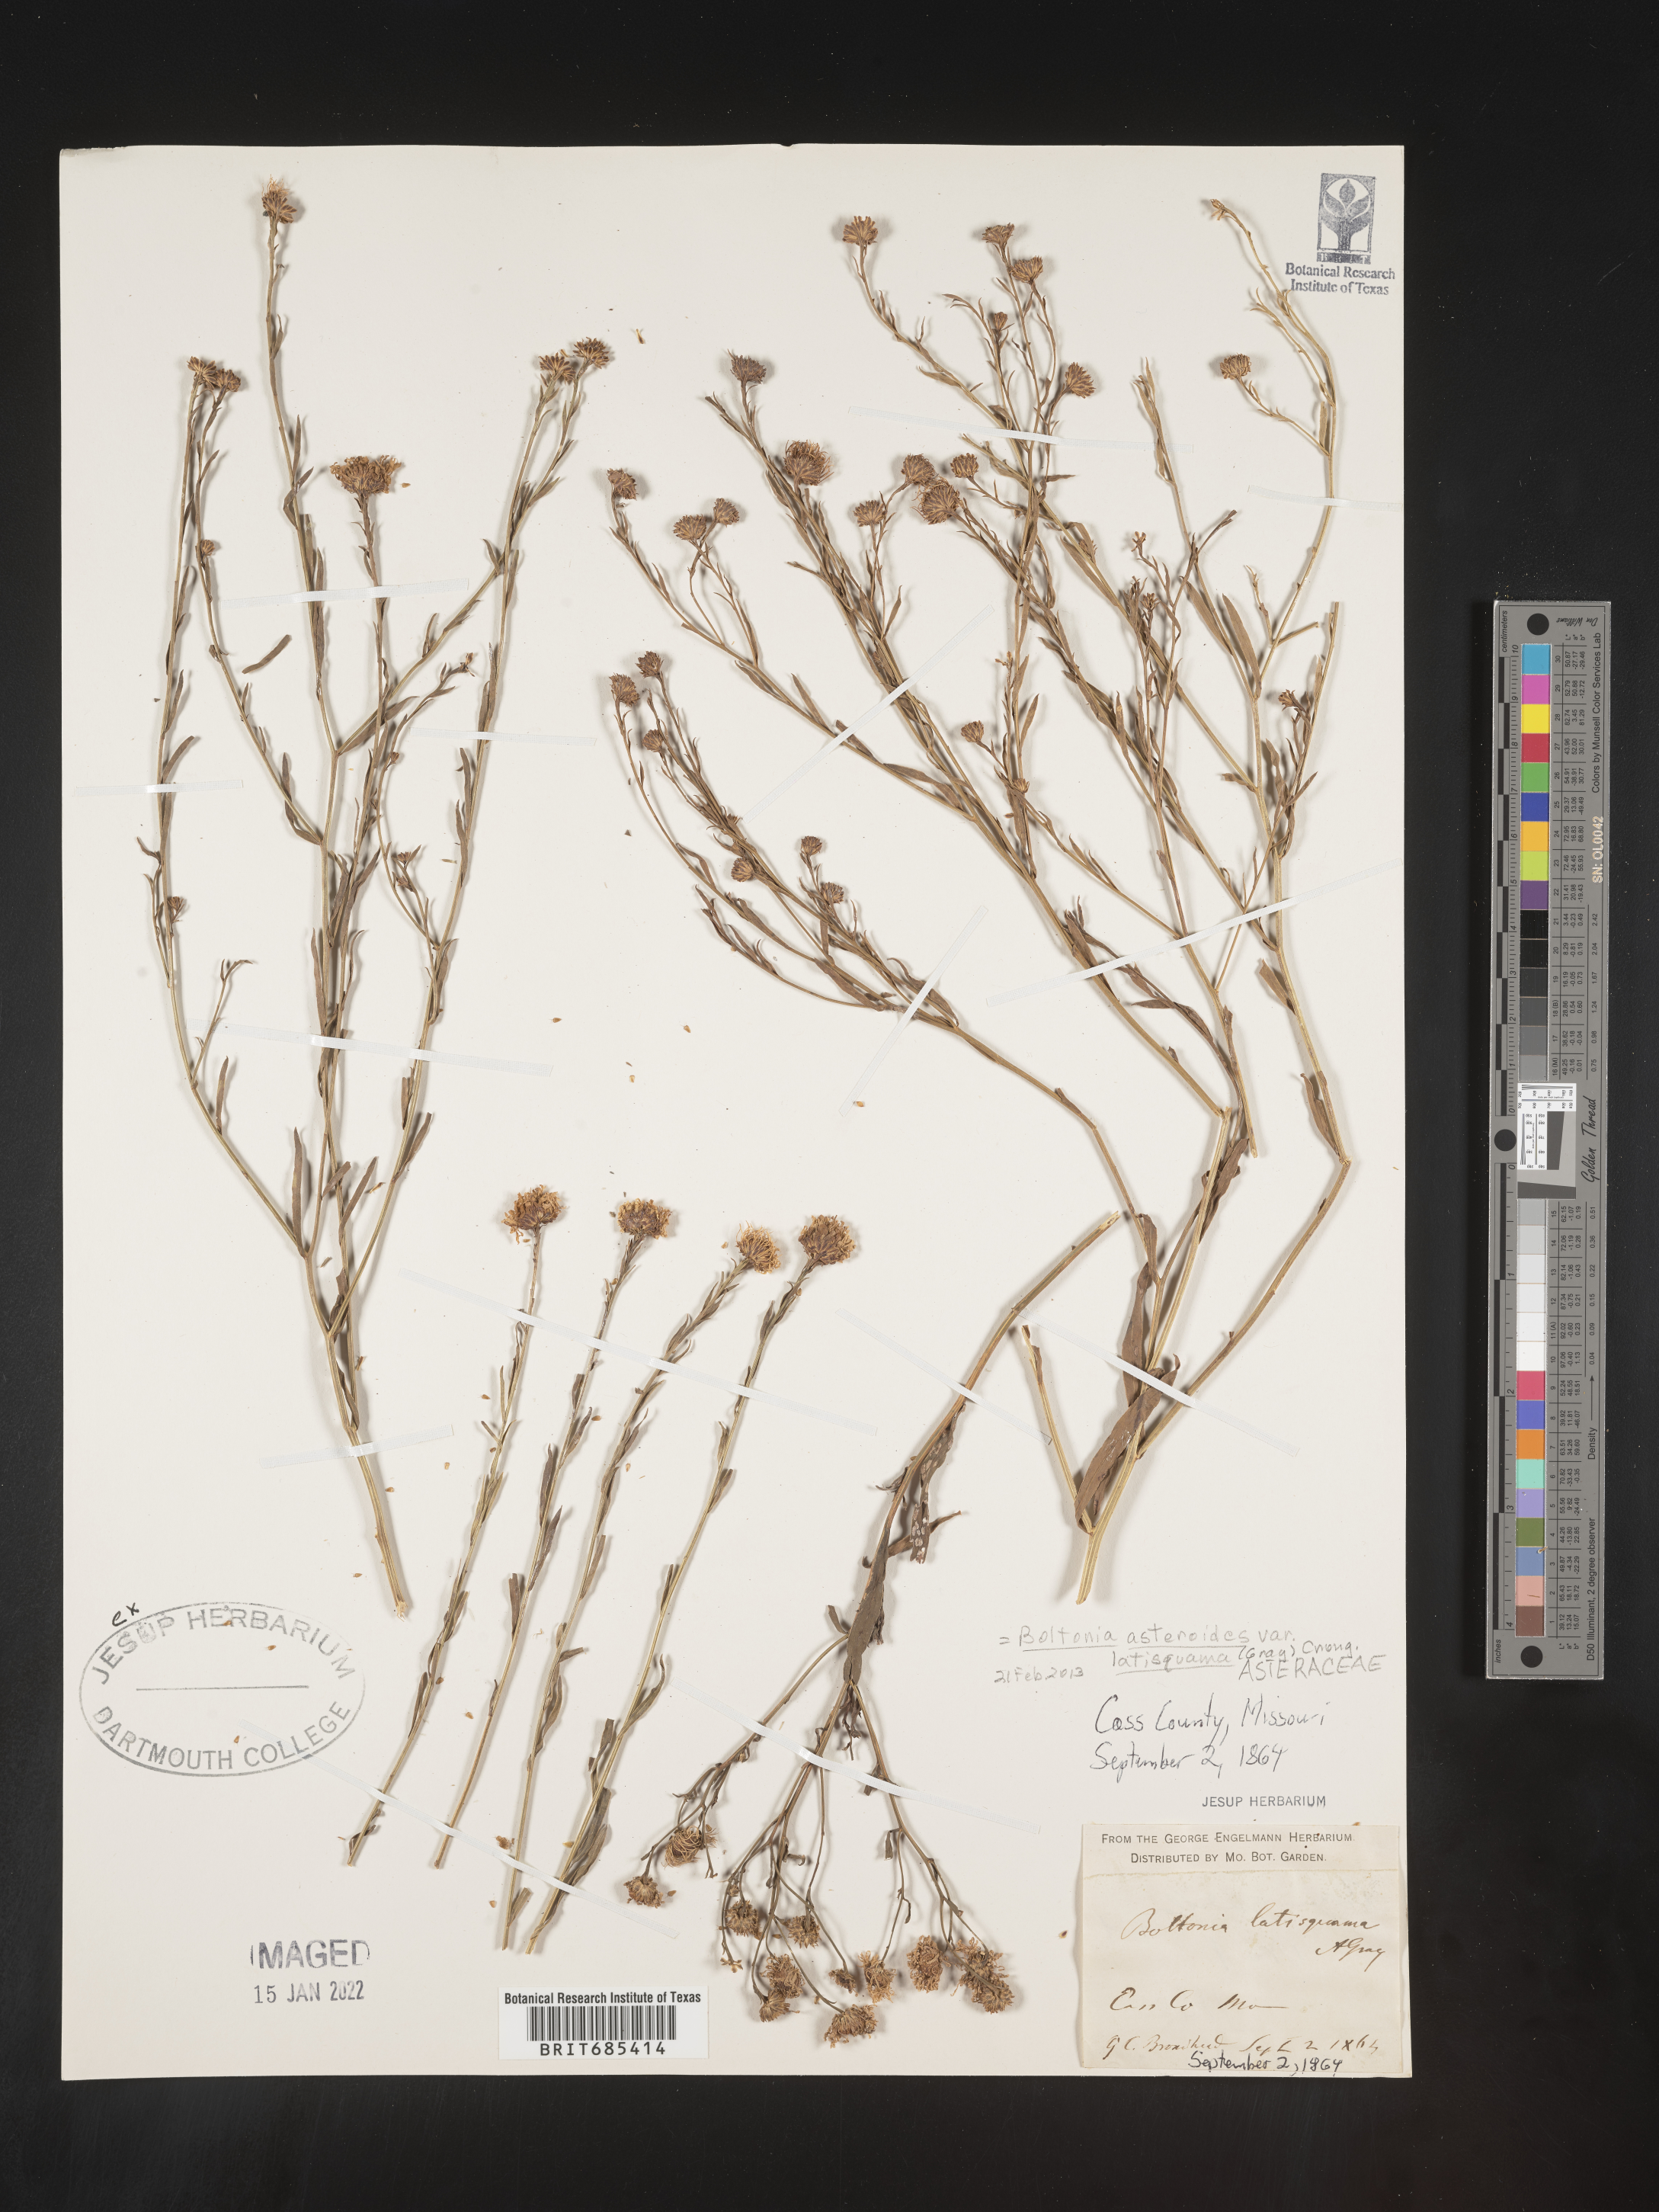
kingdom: Plantae
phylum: Tracheophyta
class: Magnoliopsida
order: Asterales
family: Asteraceae
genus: Boltonia
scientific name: Boltonia asteroides
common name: False chamomile
